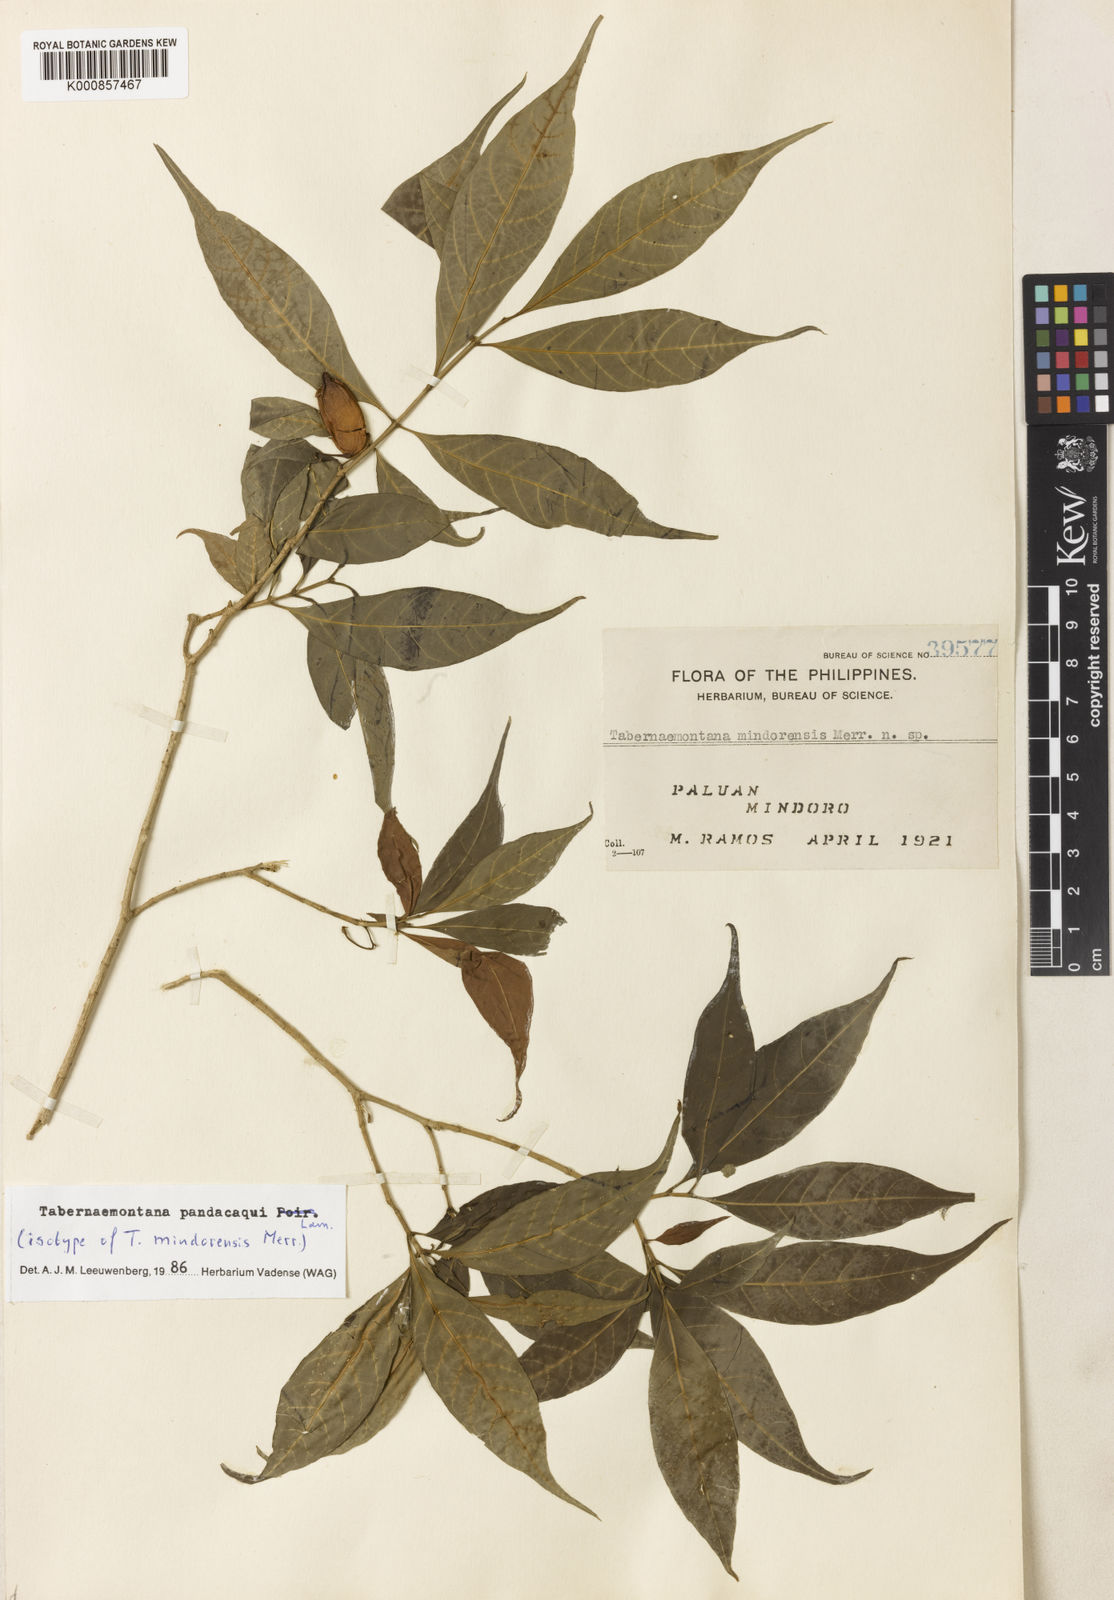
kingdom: Plantae
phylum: Tracheophyta
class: Magnoliopsida
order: Gentianales
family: Apocynaceae
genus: Tabernaemontana
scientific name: Tabernaemontana
